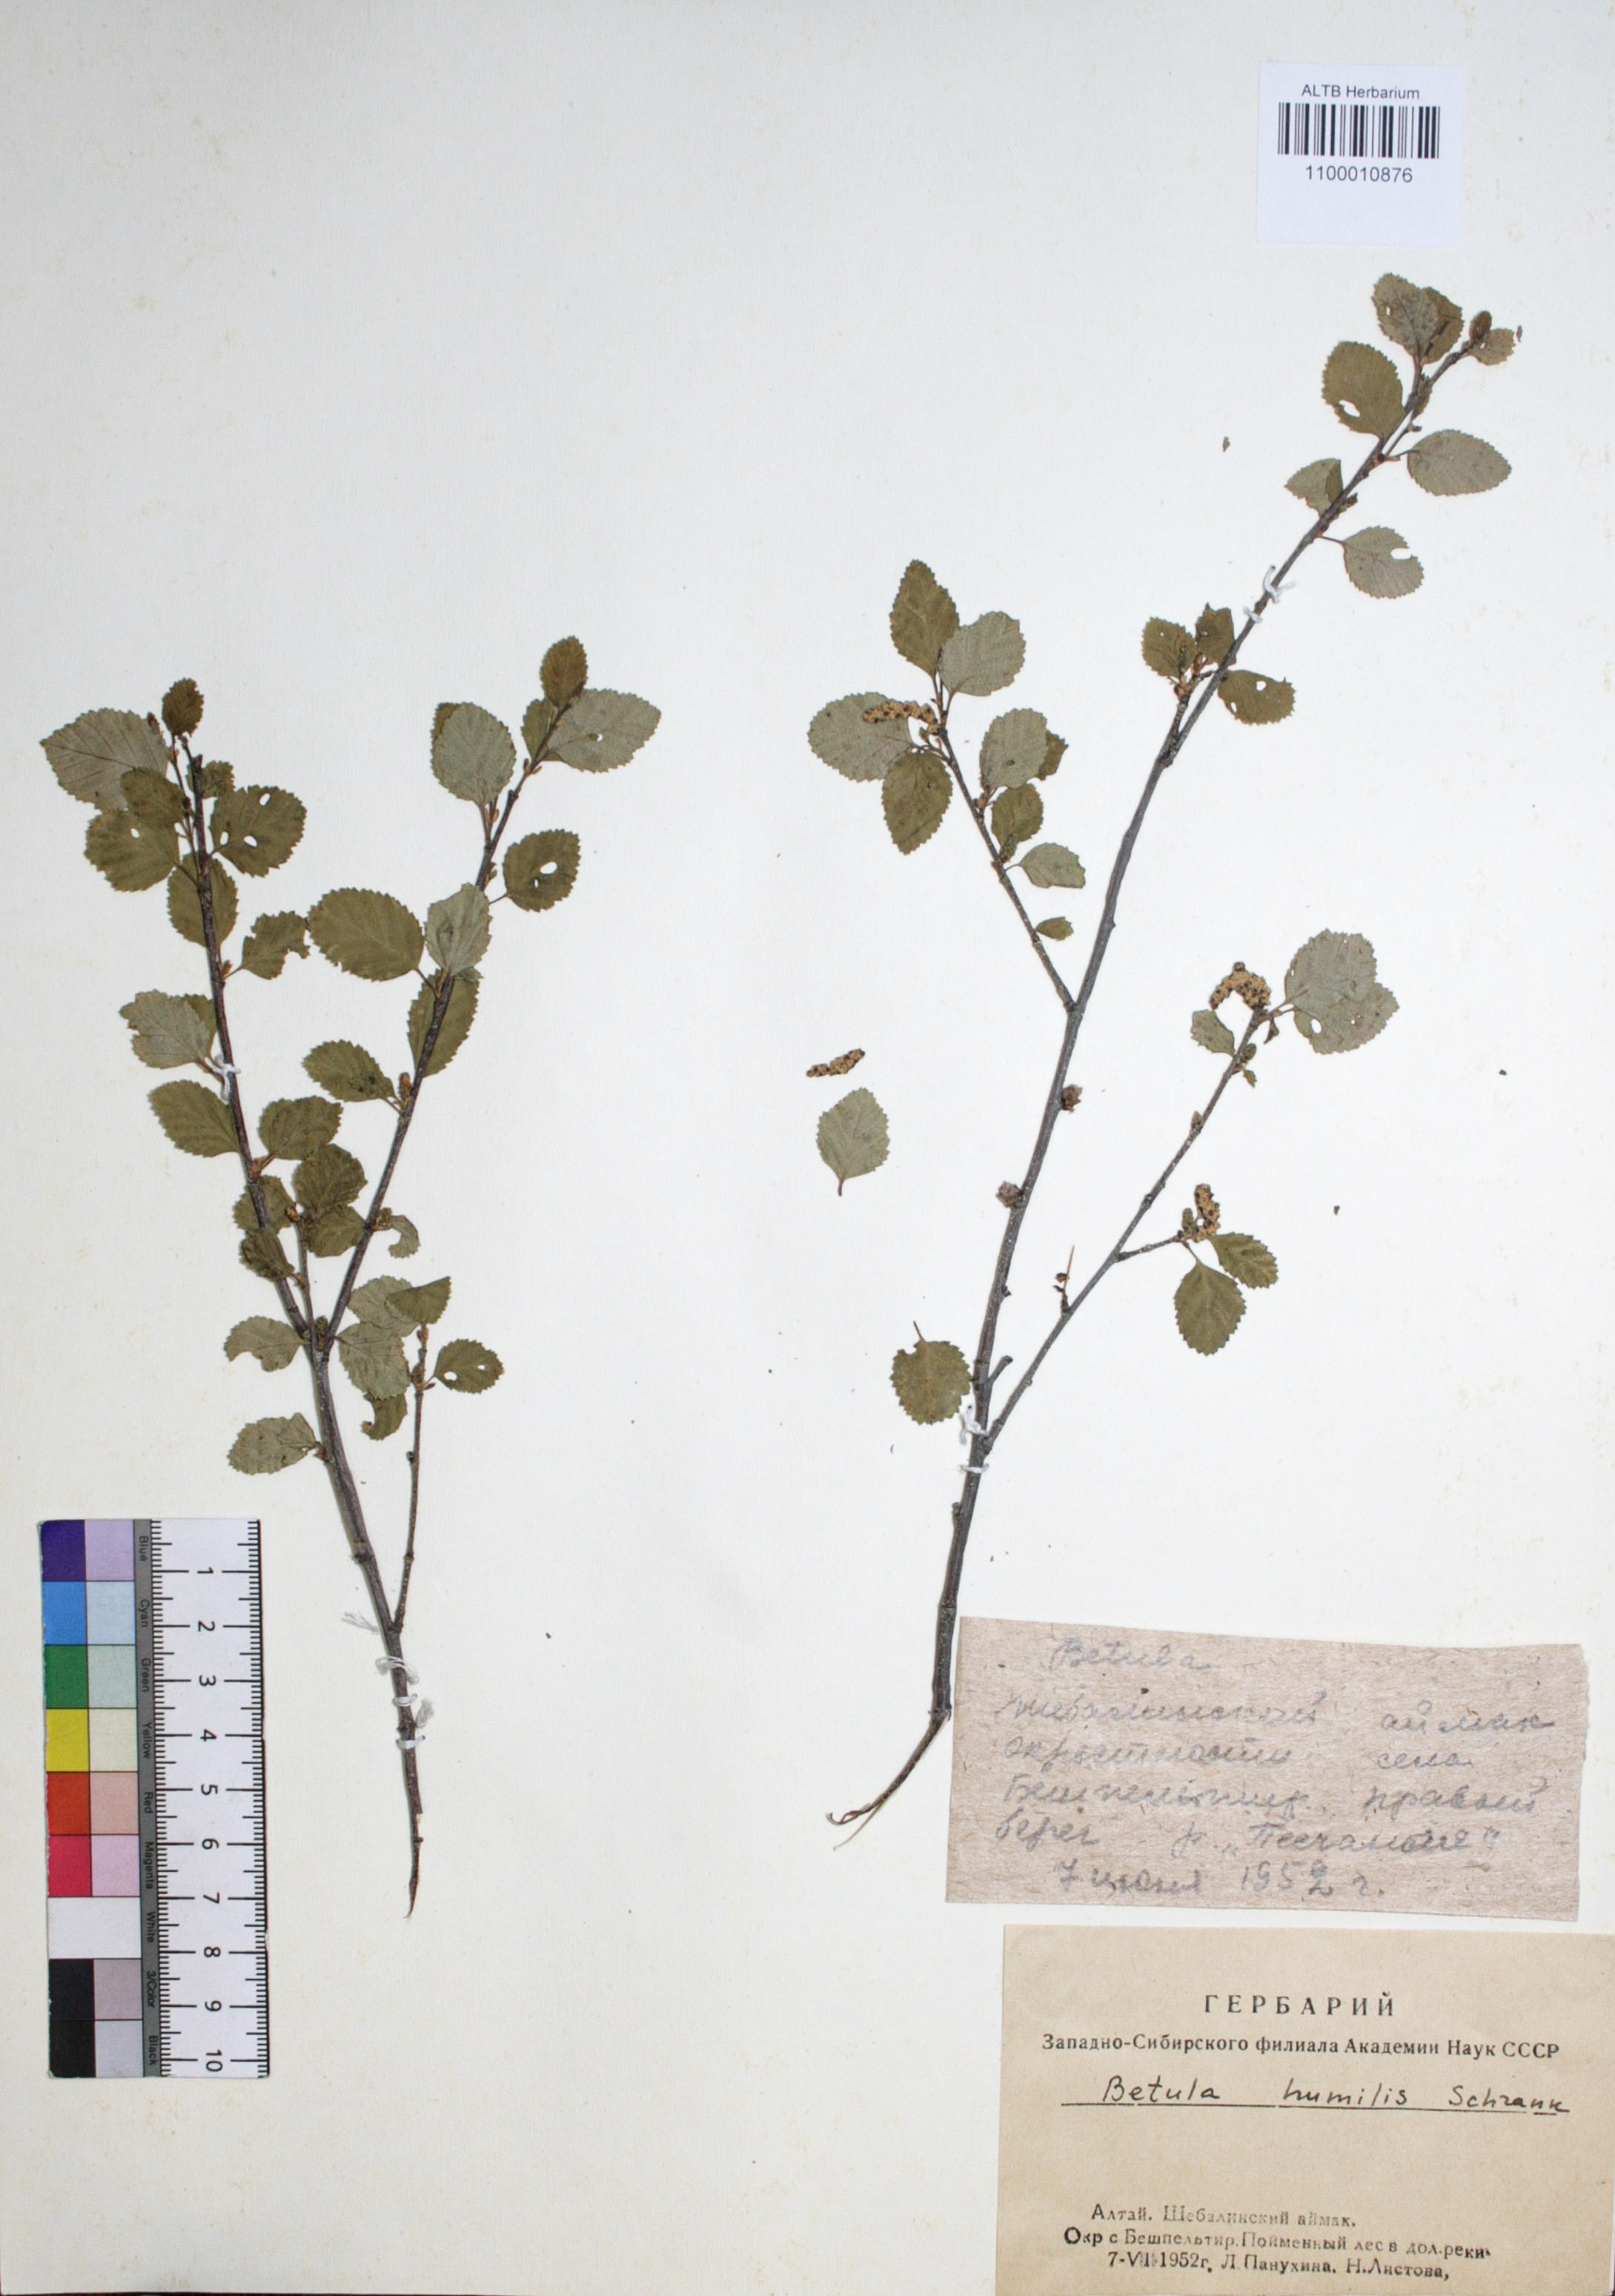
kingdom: Plantae
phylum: Tracheophyta
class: Magnoliopsida
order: Fagales
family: Betulaceae
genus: Betula
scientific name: Betula humilis
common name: Shrubby birch
